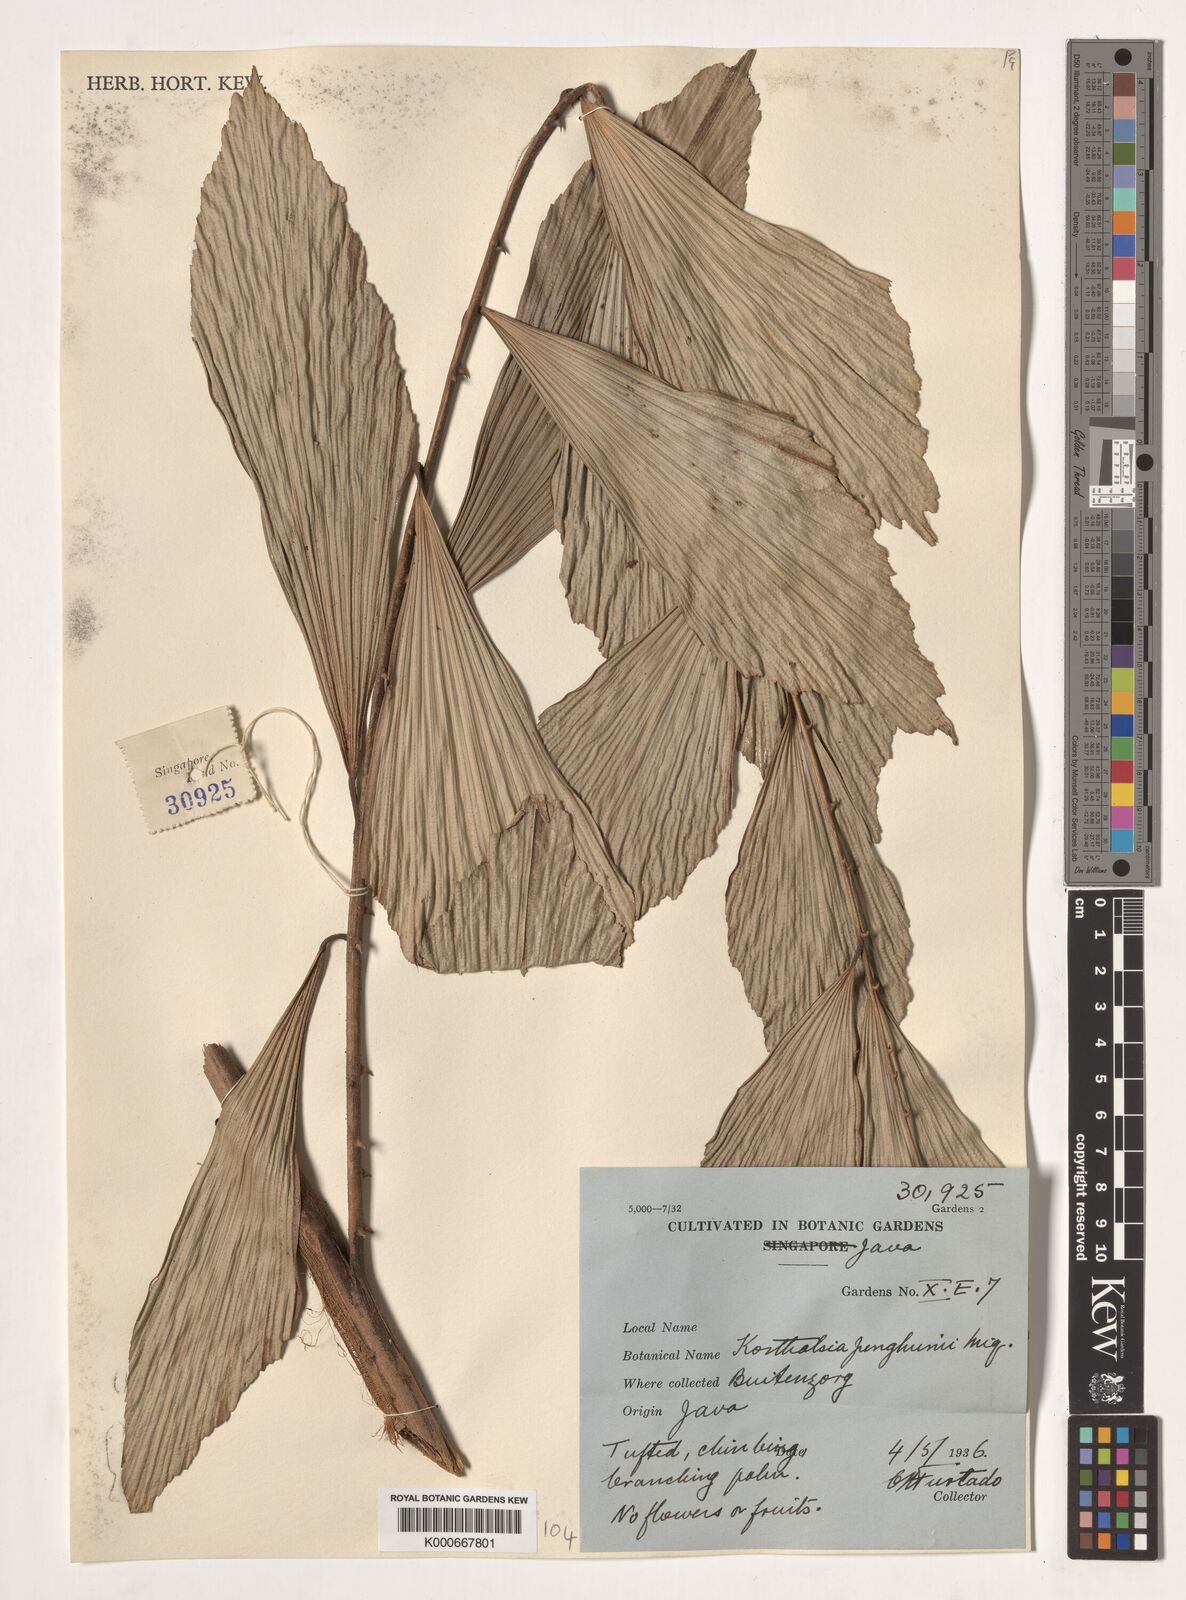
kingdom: Plantae
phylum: Tracheophyta
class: Liliopsida
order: Arecales
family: Arecaceae
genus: Korthalsia
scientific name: Korthalsia junghuhnii
